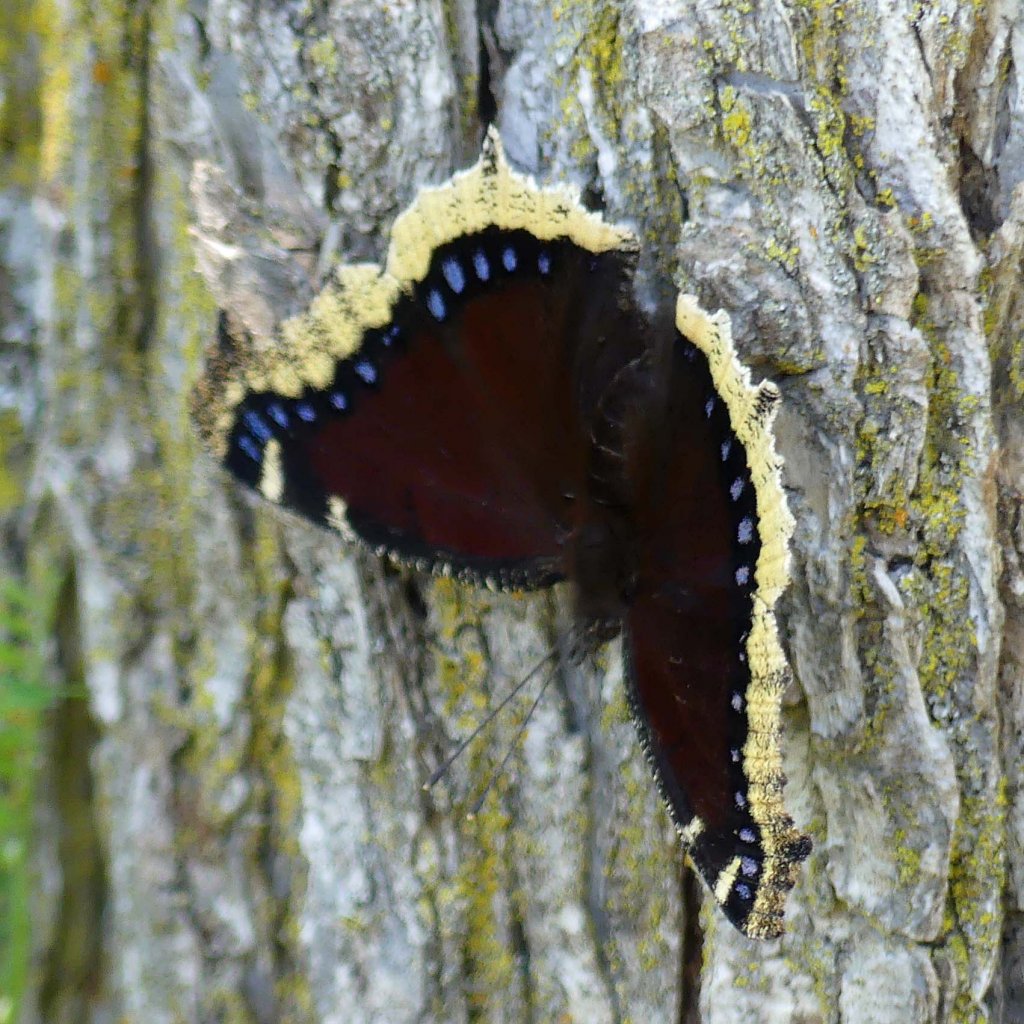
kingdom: Animalia
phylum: Arthropoda
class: Insecta
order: Lepidoptera
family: Nymphalidae
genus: Nymphalis
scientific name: Nymphalis antiopa
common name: Mourning Cloak
